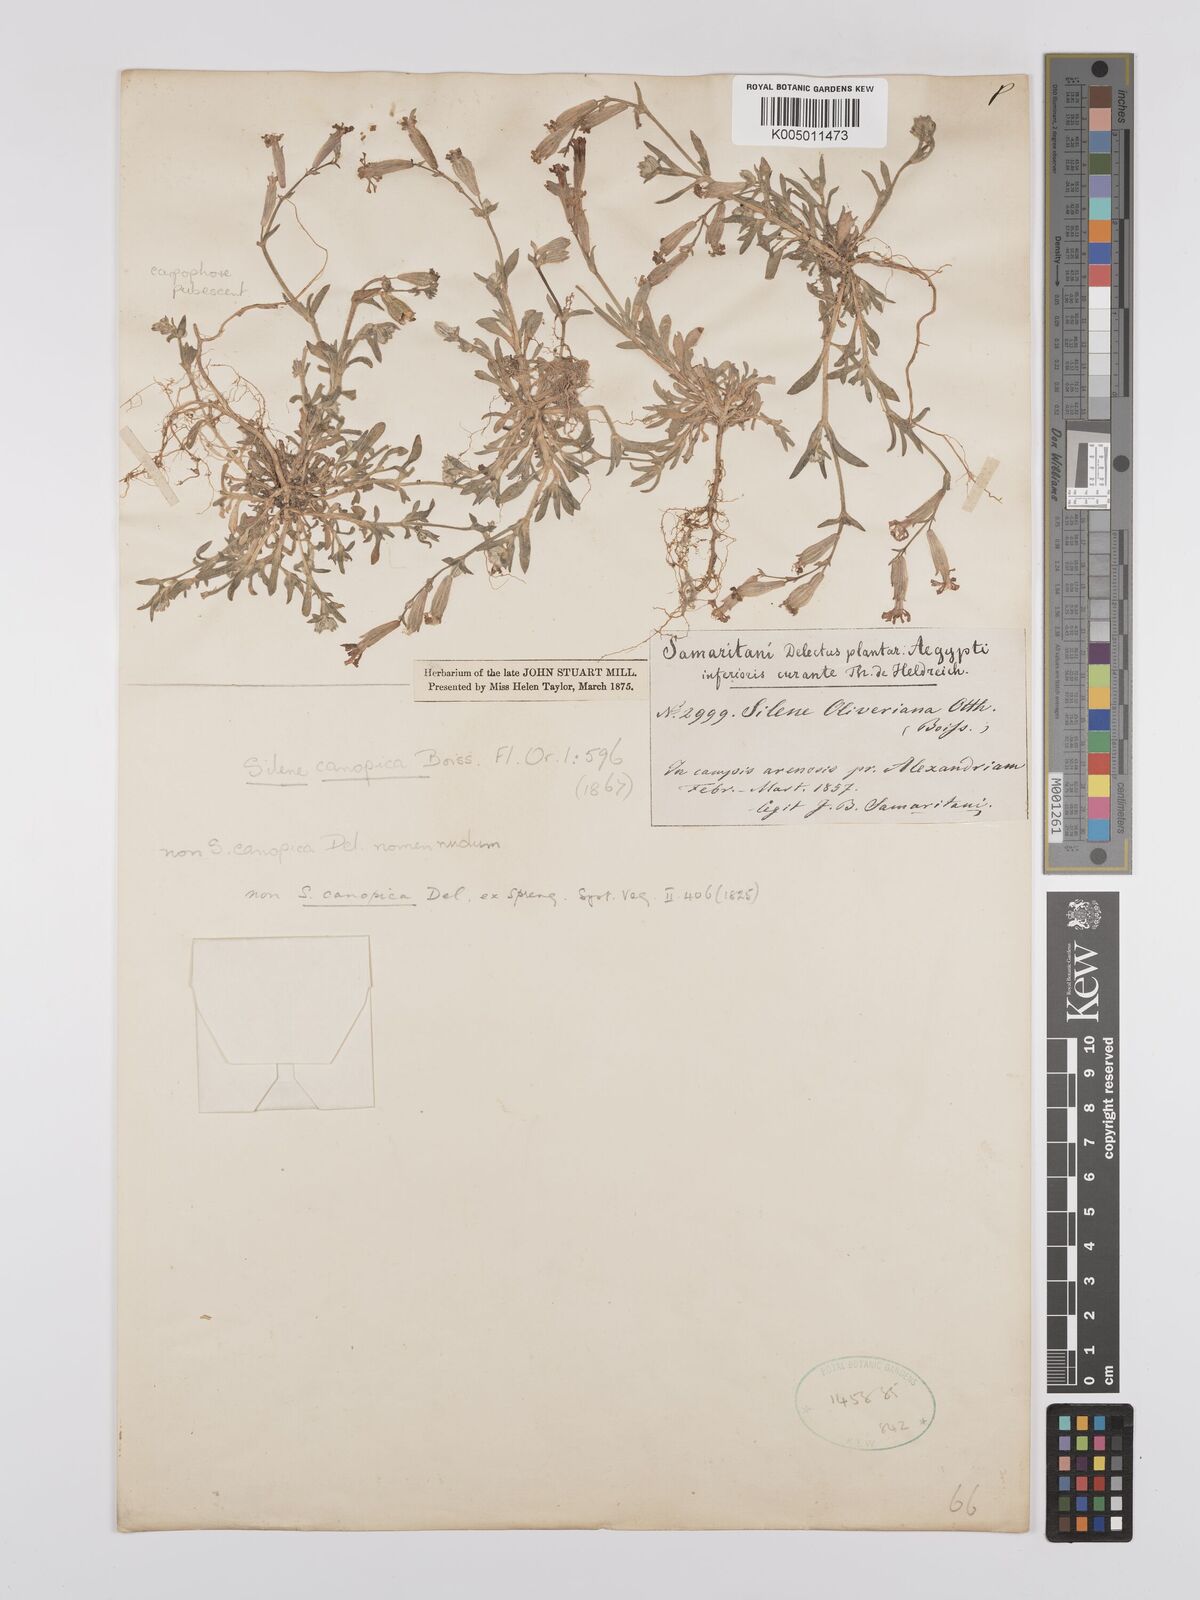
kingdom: Plantae
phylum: Tracheophyta
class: Magnoliopsida
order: Caryophyllales
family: Caryophyllaceae
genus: Silene
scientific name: Silene biappendiculata
